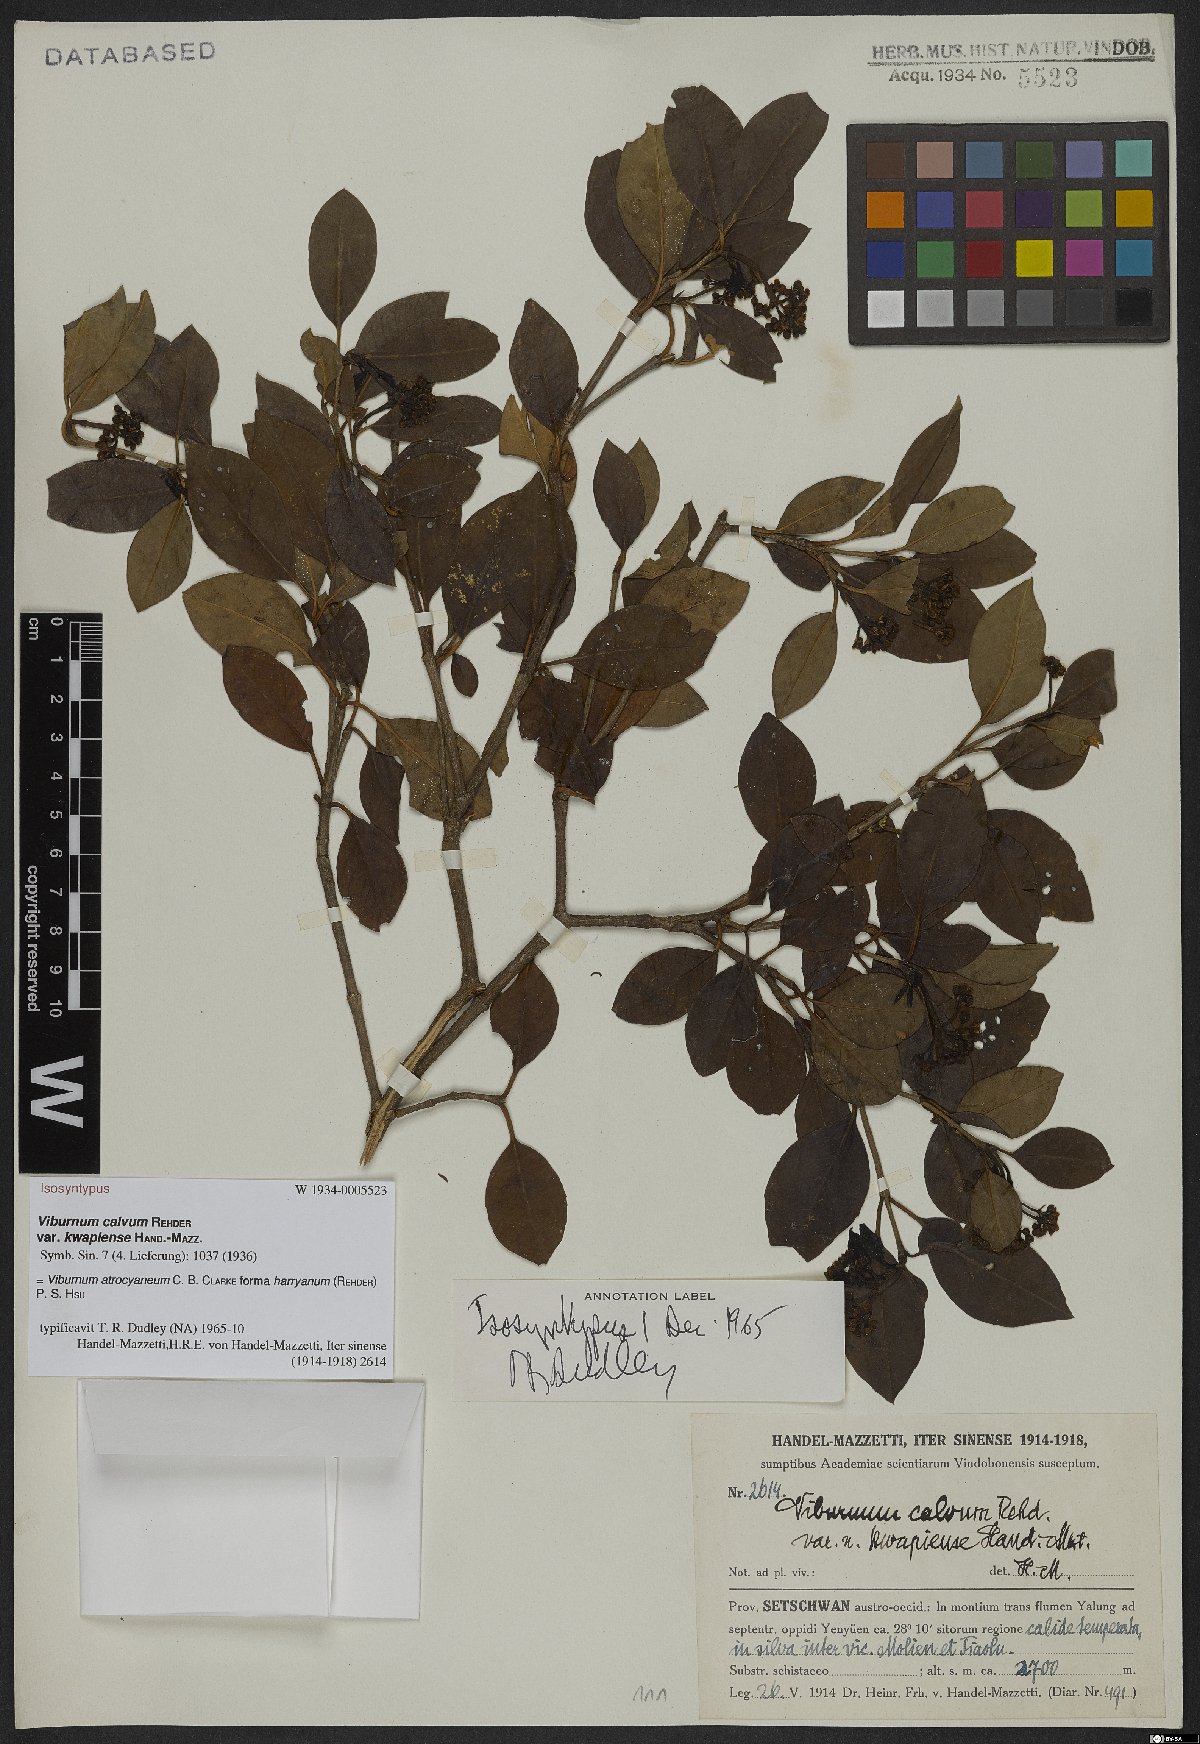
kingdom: Plantae
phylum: Tracheophyta
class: Magnoliopsida
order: Dipsacales
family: Viburnaceae
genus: Viburnum
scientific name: Viburnum atrocyaneum
